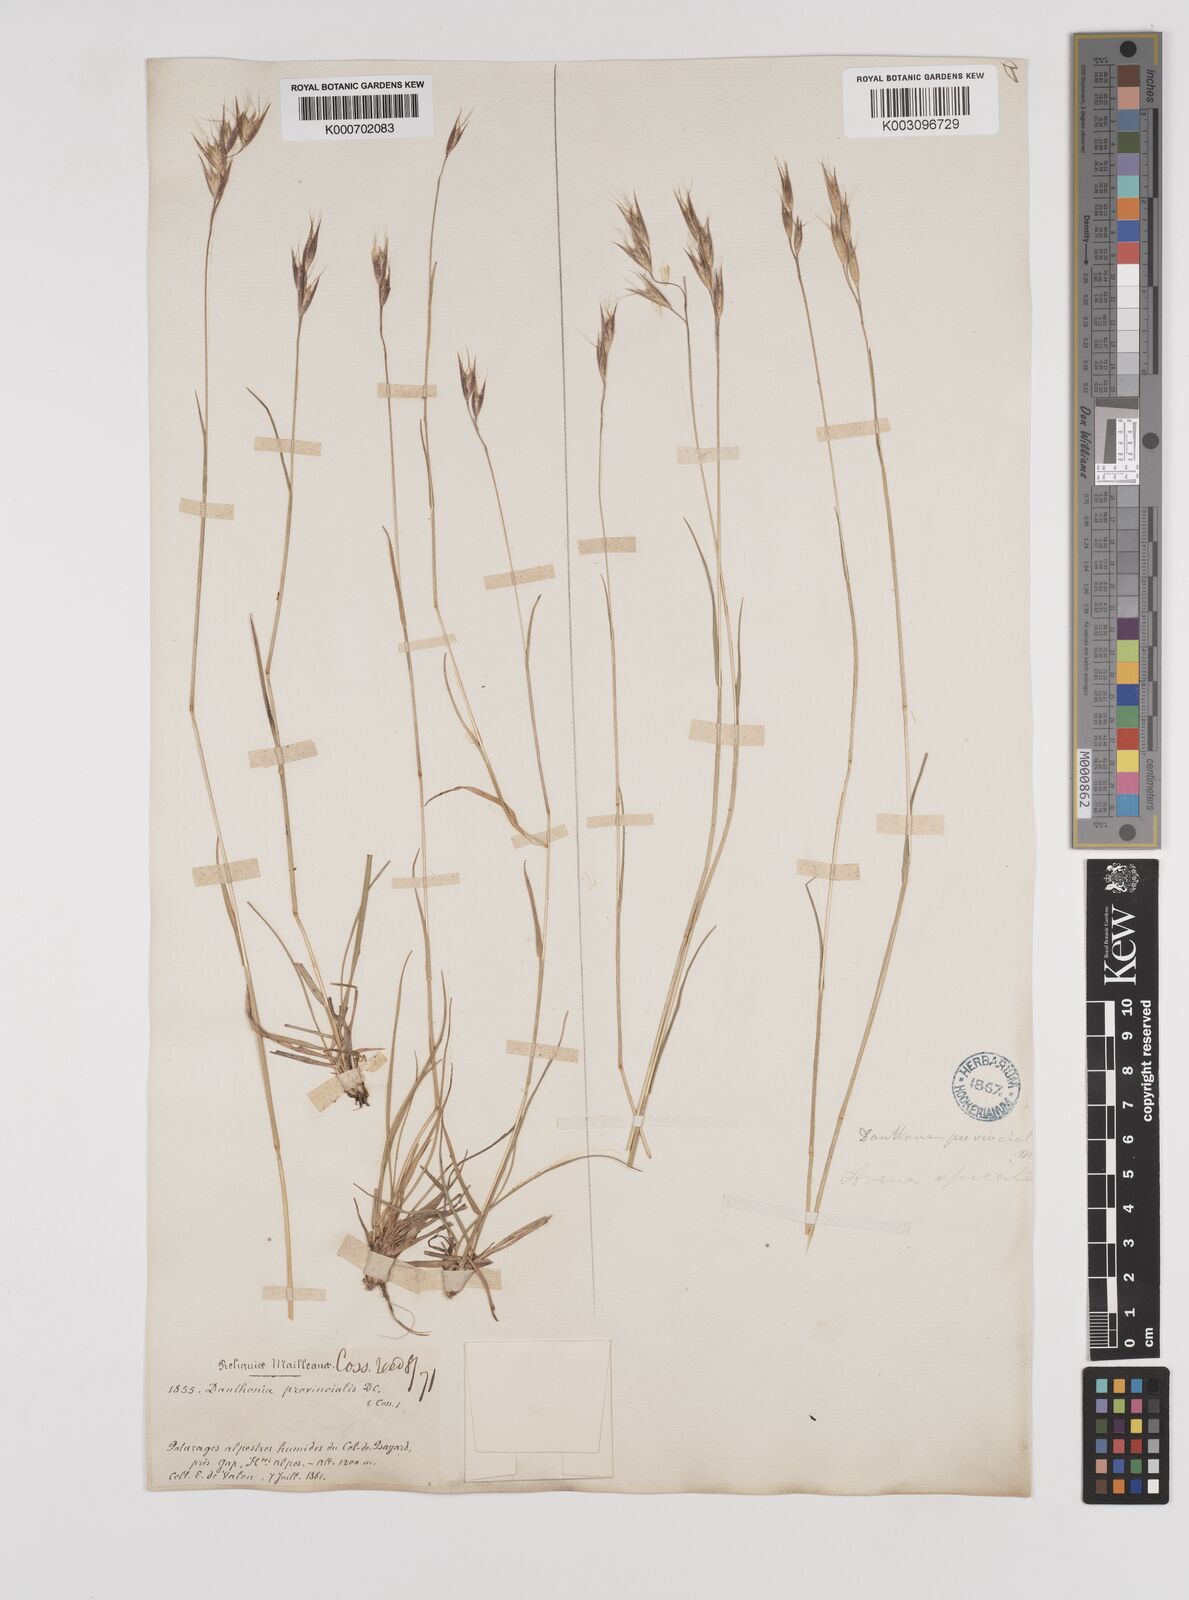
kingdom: Plantae
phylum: Tracheophyta
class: Liliopsida
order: Poales
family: Poaceae
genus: Danthonia
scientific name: Danthonia alpina
